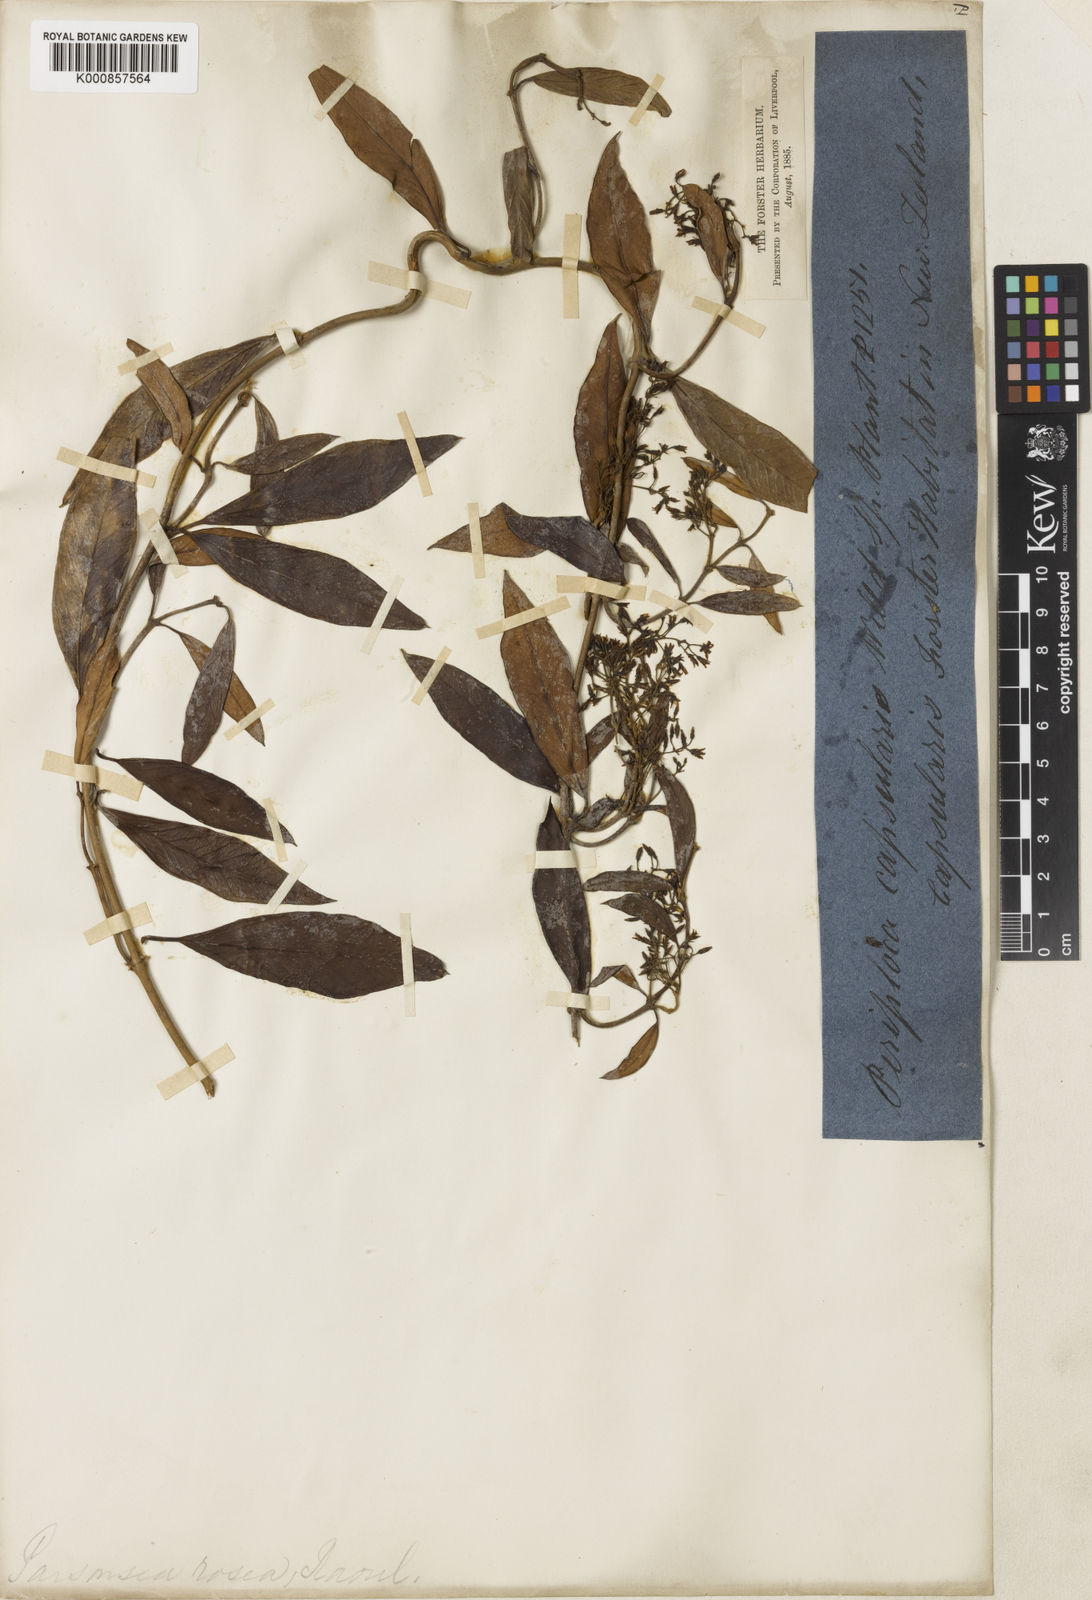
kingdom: Plantae
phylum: Tracheophyta
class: Magnoliopsida
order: Gentianales
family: Apocynaceae
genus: Parsonsia
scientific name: Parsonsia capsularis
